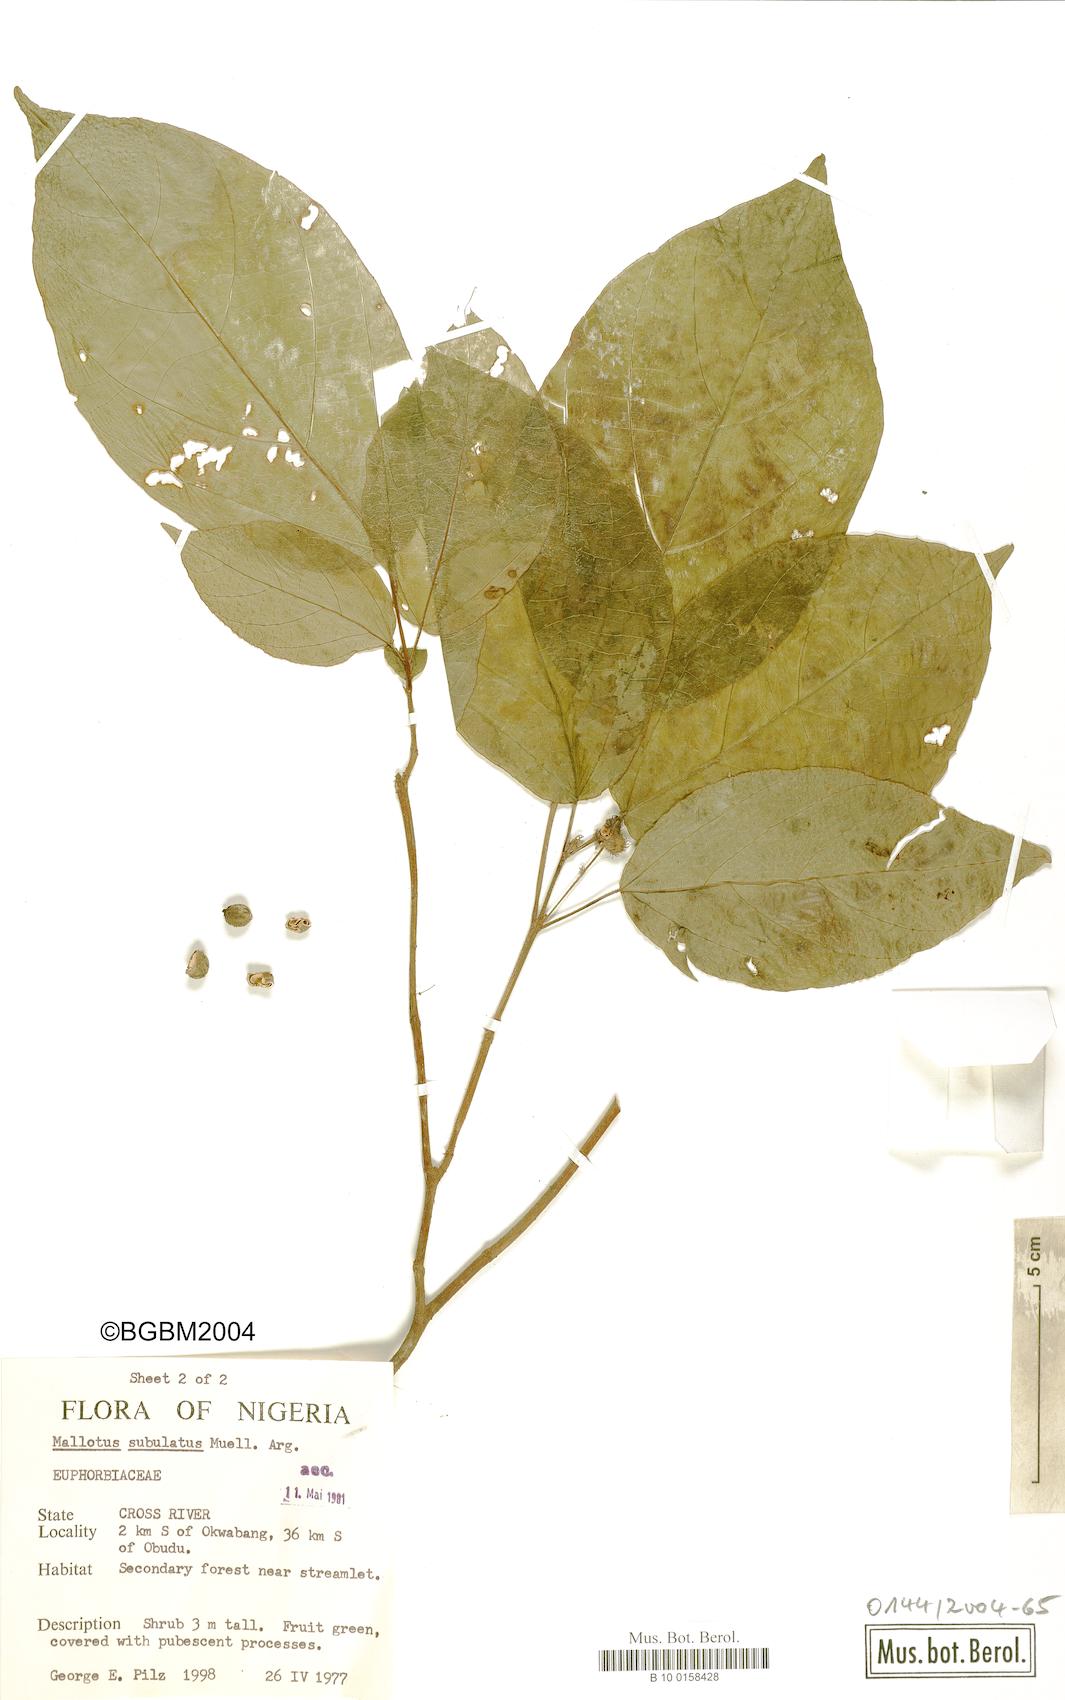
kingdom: Plantae
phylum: Tracheophyta
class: Magnoliopsida
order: Malpighiales
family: Euphorbiaceae
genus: Mallotus
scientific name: Mallotus subulatus
